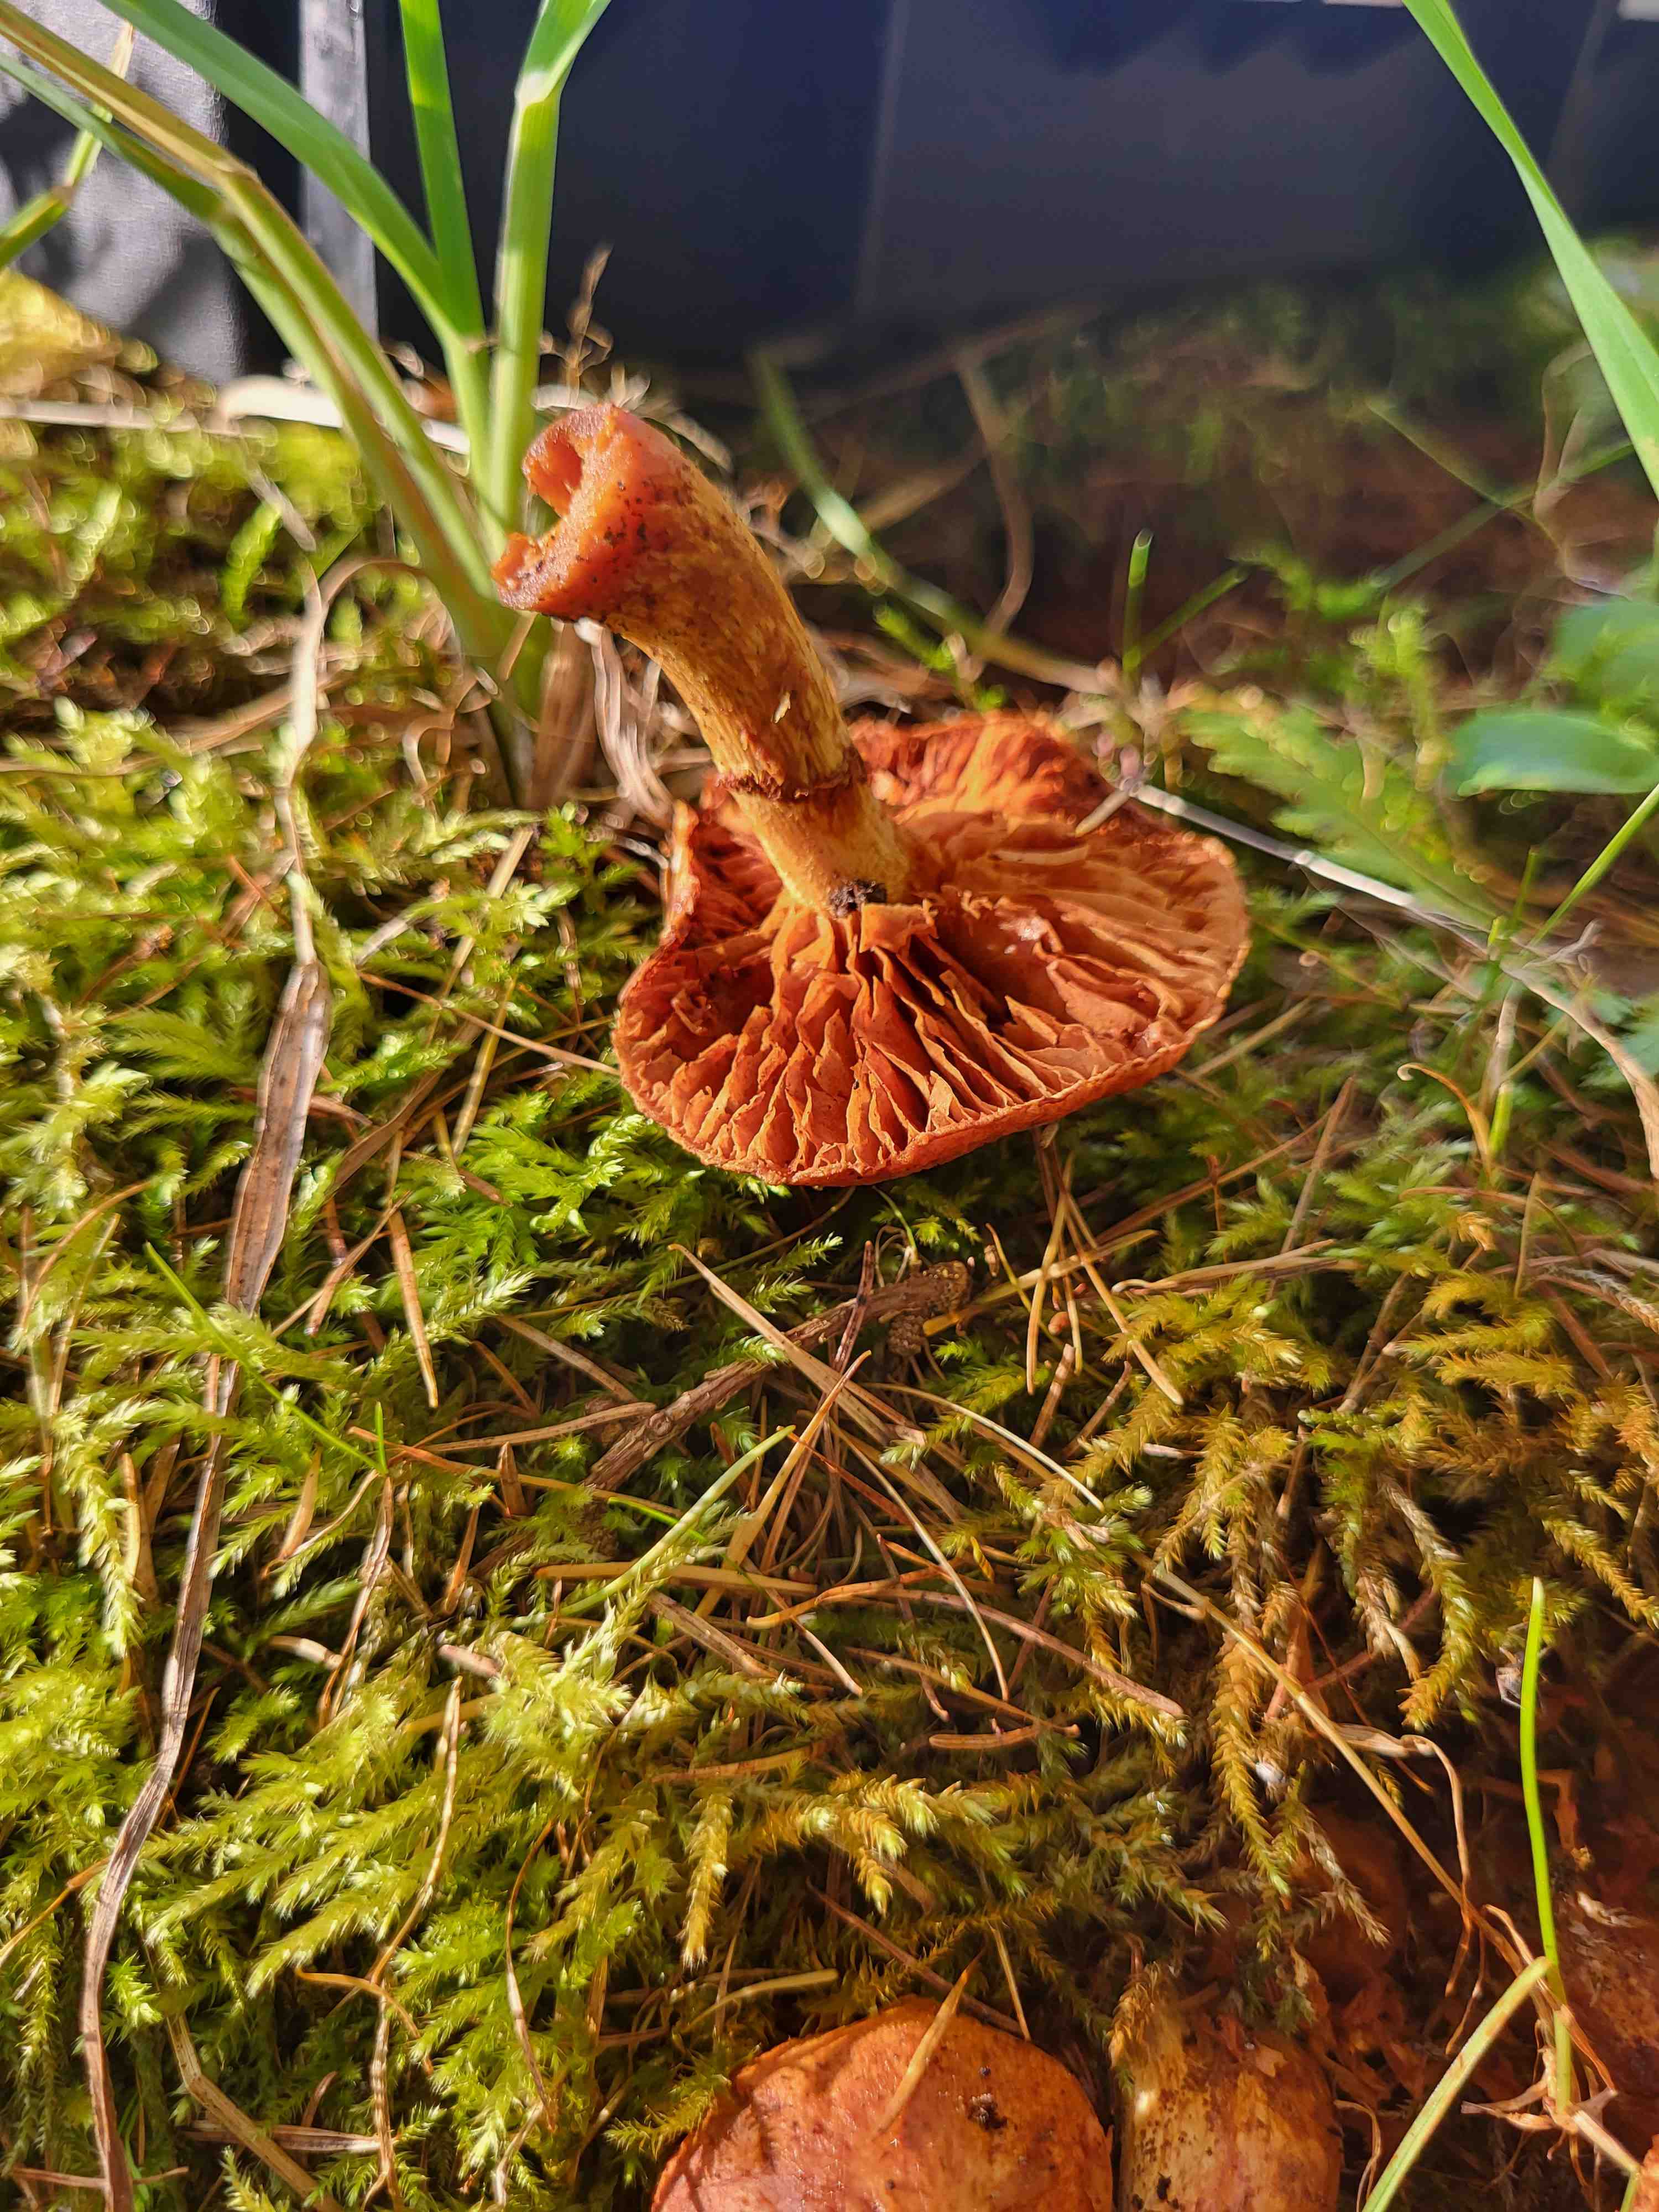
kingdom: Fungi
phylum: Basidiomycota
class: Agaricomycetes
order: Agaricales
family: Hymenogastraceae
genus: Gymnopilus
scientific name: Gymnopilus spectabilis
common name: fibret flammehat
